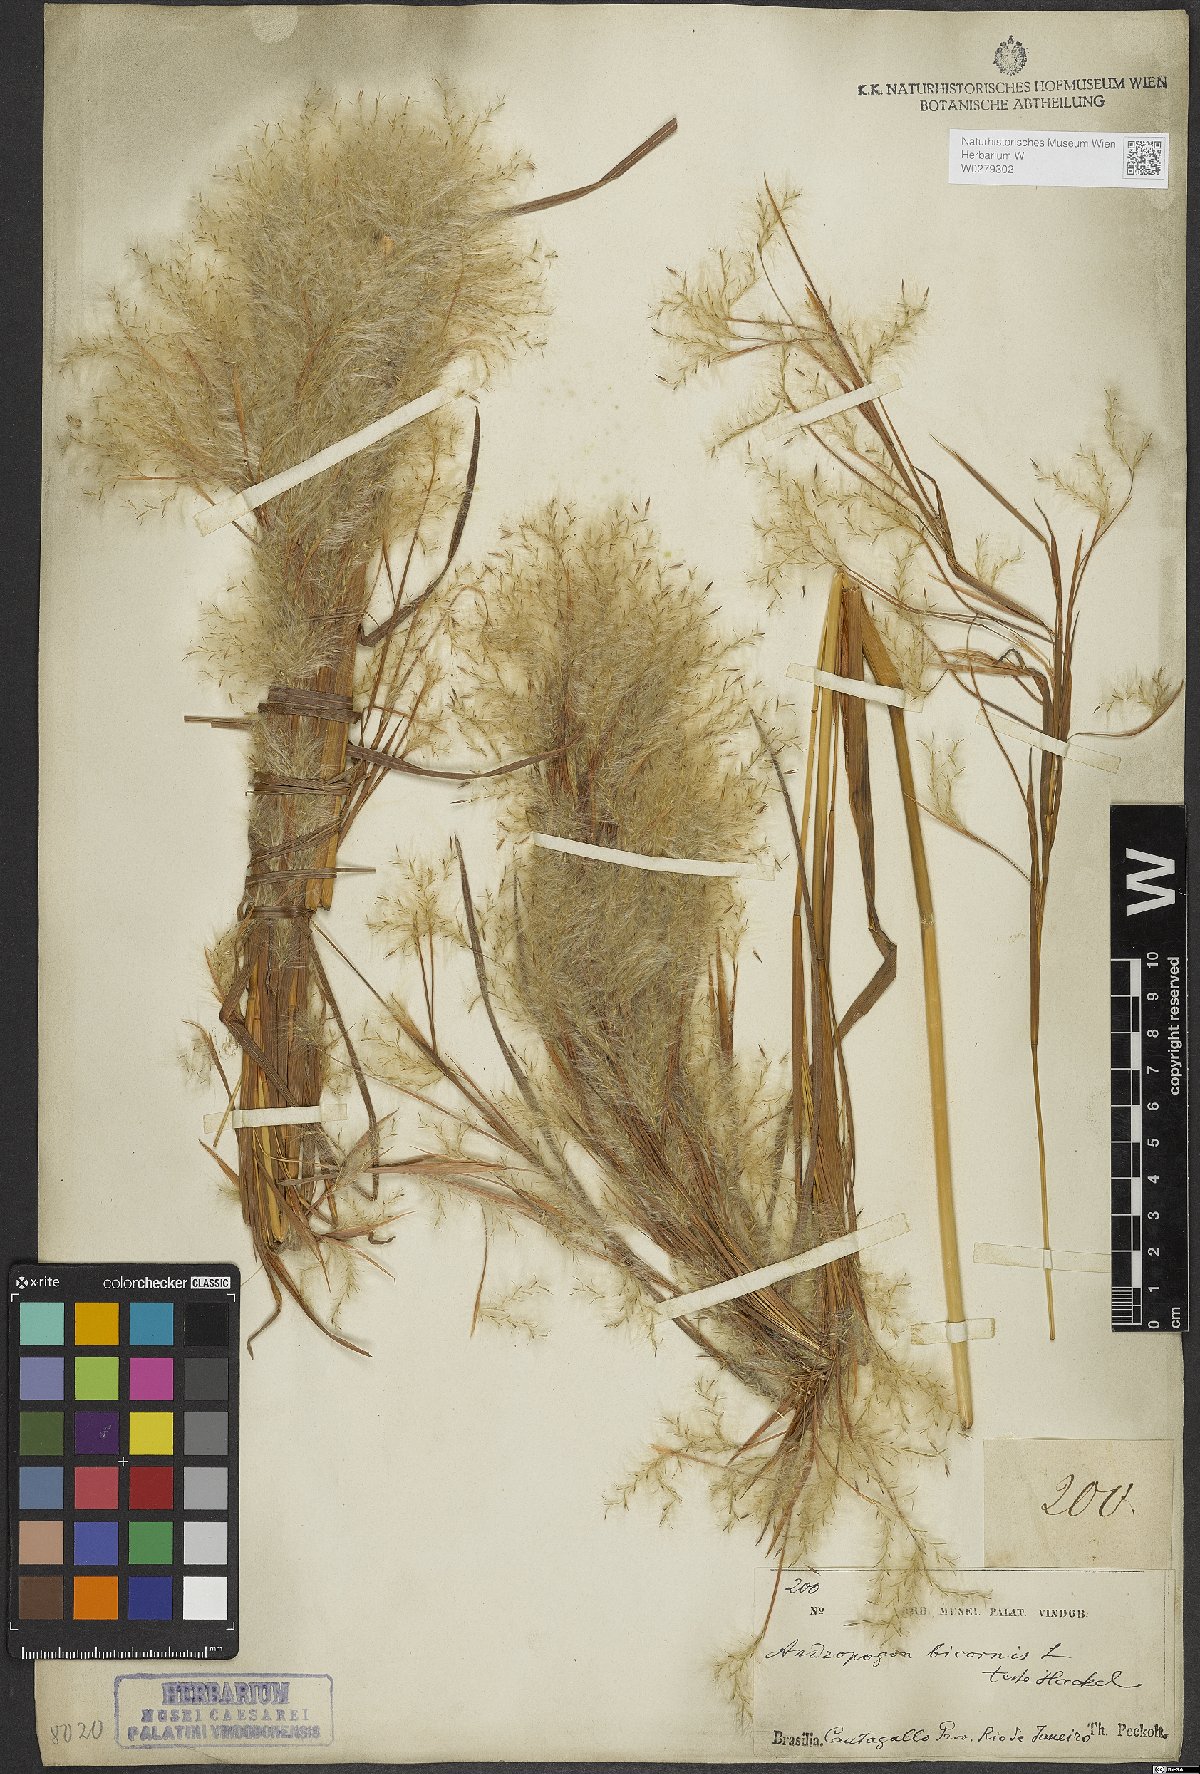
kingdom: Plantae
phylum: Tracheophyta
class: Liliopsida
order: Poales
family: Poaceae
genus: Andropogon
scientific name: Andropogon bicornis
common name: West indian foxtail grass
